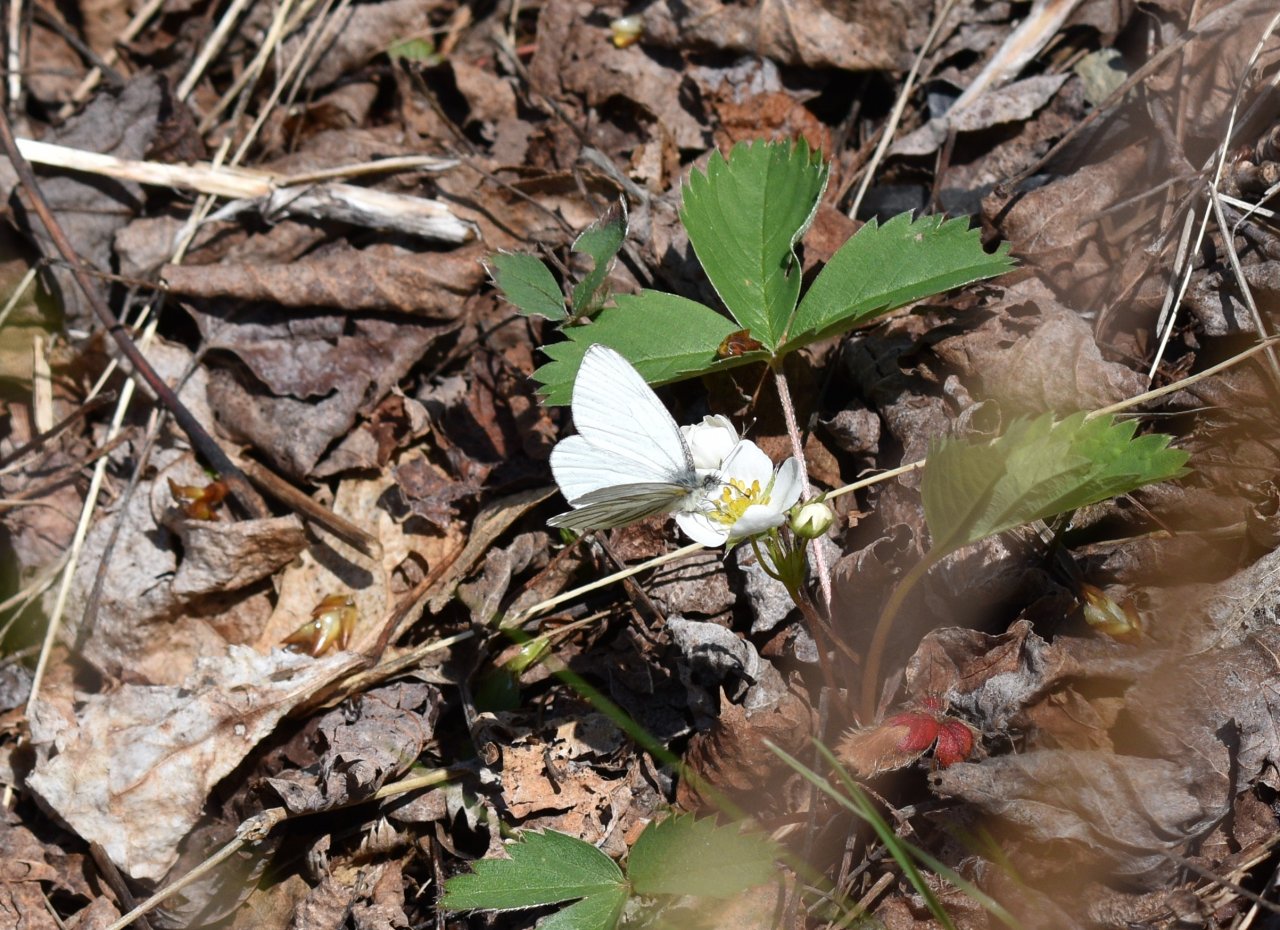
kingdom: Animalia
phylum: Arthropoda
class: Insecta
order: Lepidoptera
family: Pieridae
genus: Pieris
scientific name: Pieris oleracea
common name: Mustard White
